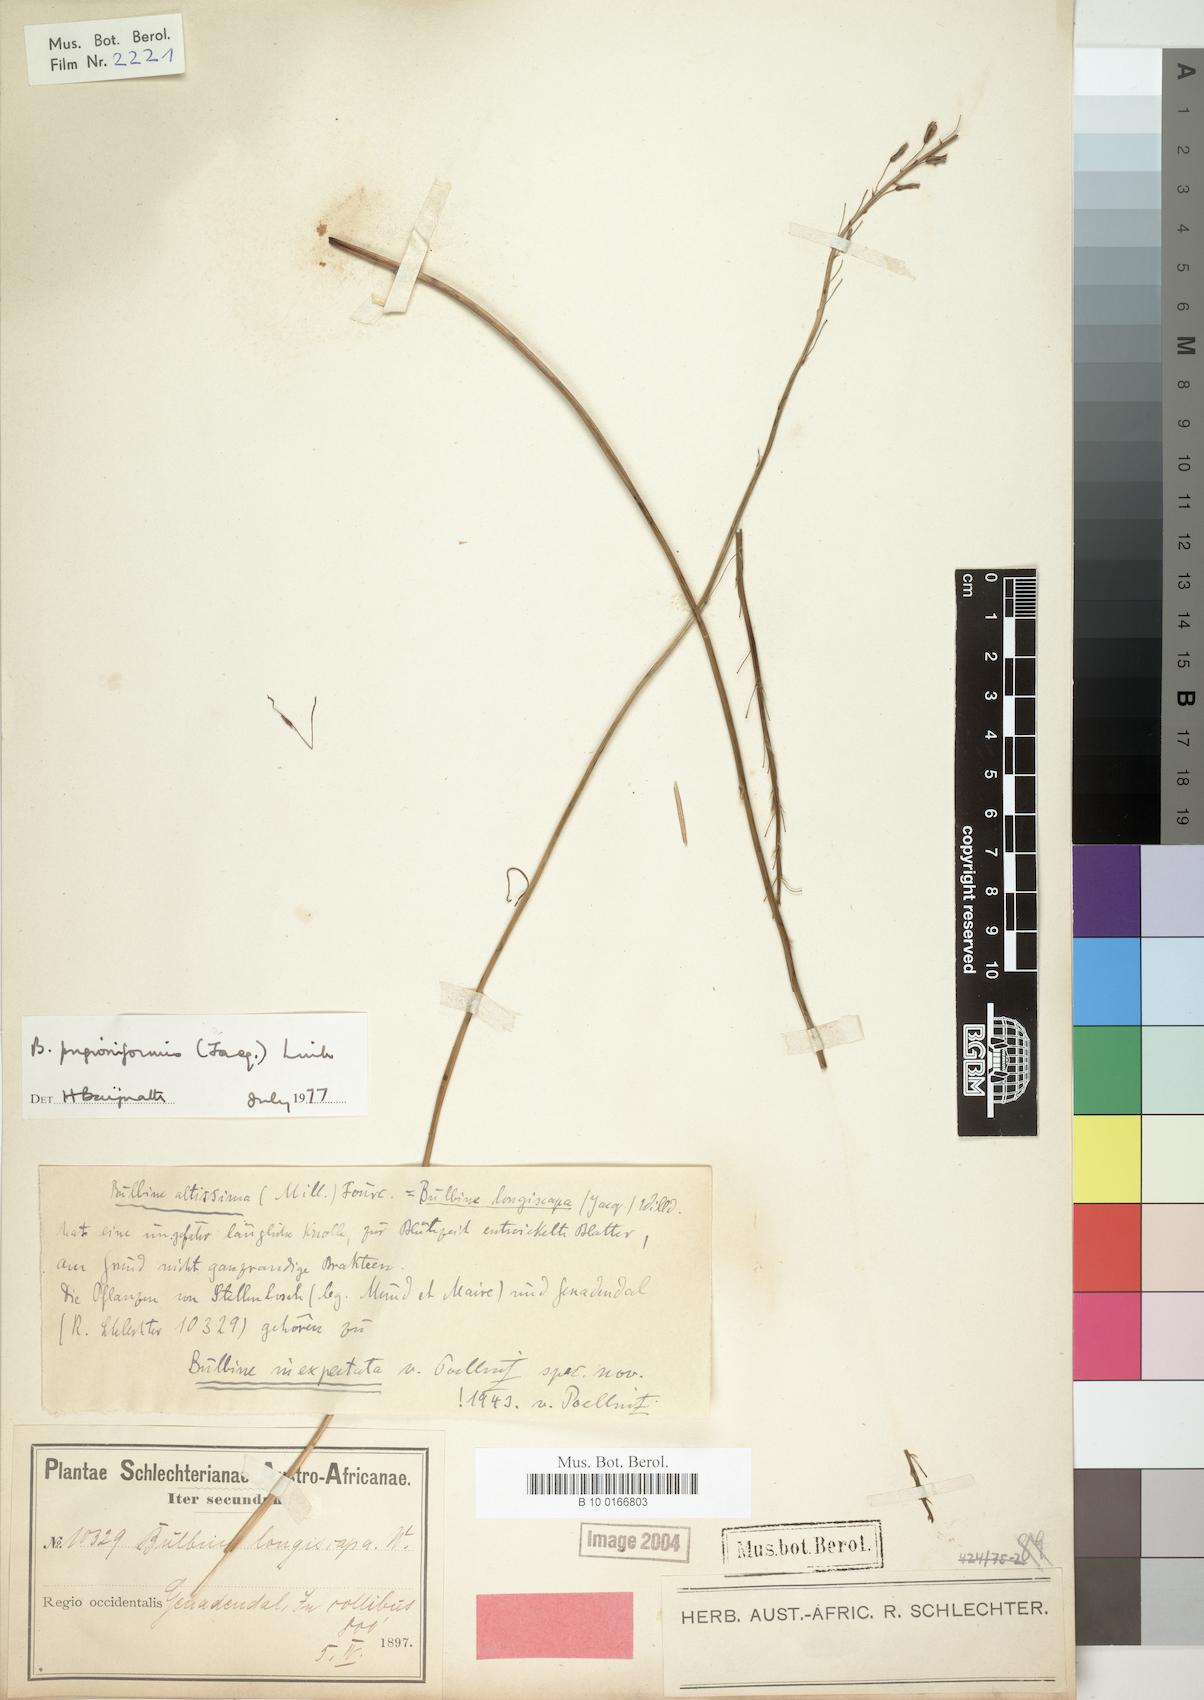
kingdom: Plantae
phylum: Tracheophyta
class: Liliopsida
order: Asparagales
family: Asphodelaceae
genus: Bulbine
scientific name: Bulbine cepacea
